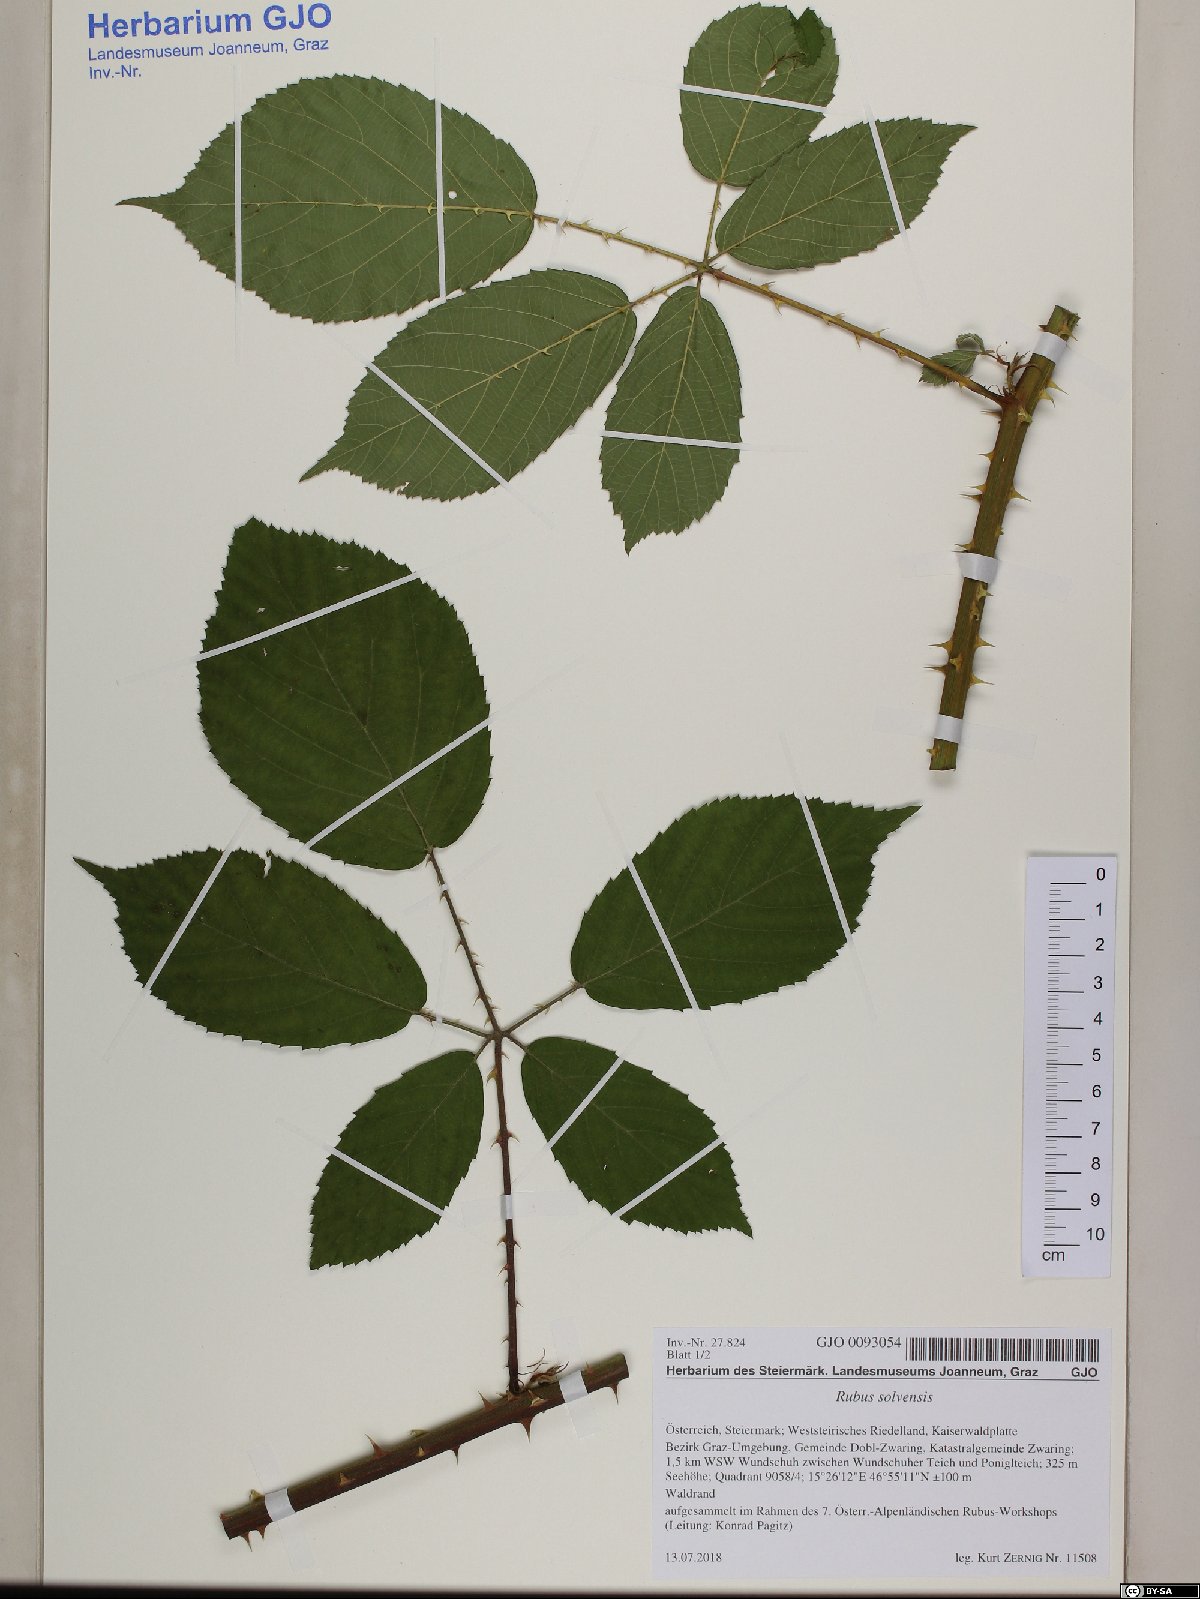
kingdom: Plantae
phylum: Tracheophyta
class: Magnoliopsida
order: Rosales
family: Rosaceae
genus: Rubus
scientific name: Rubus solvensis
